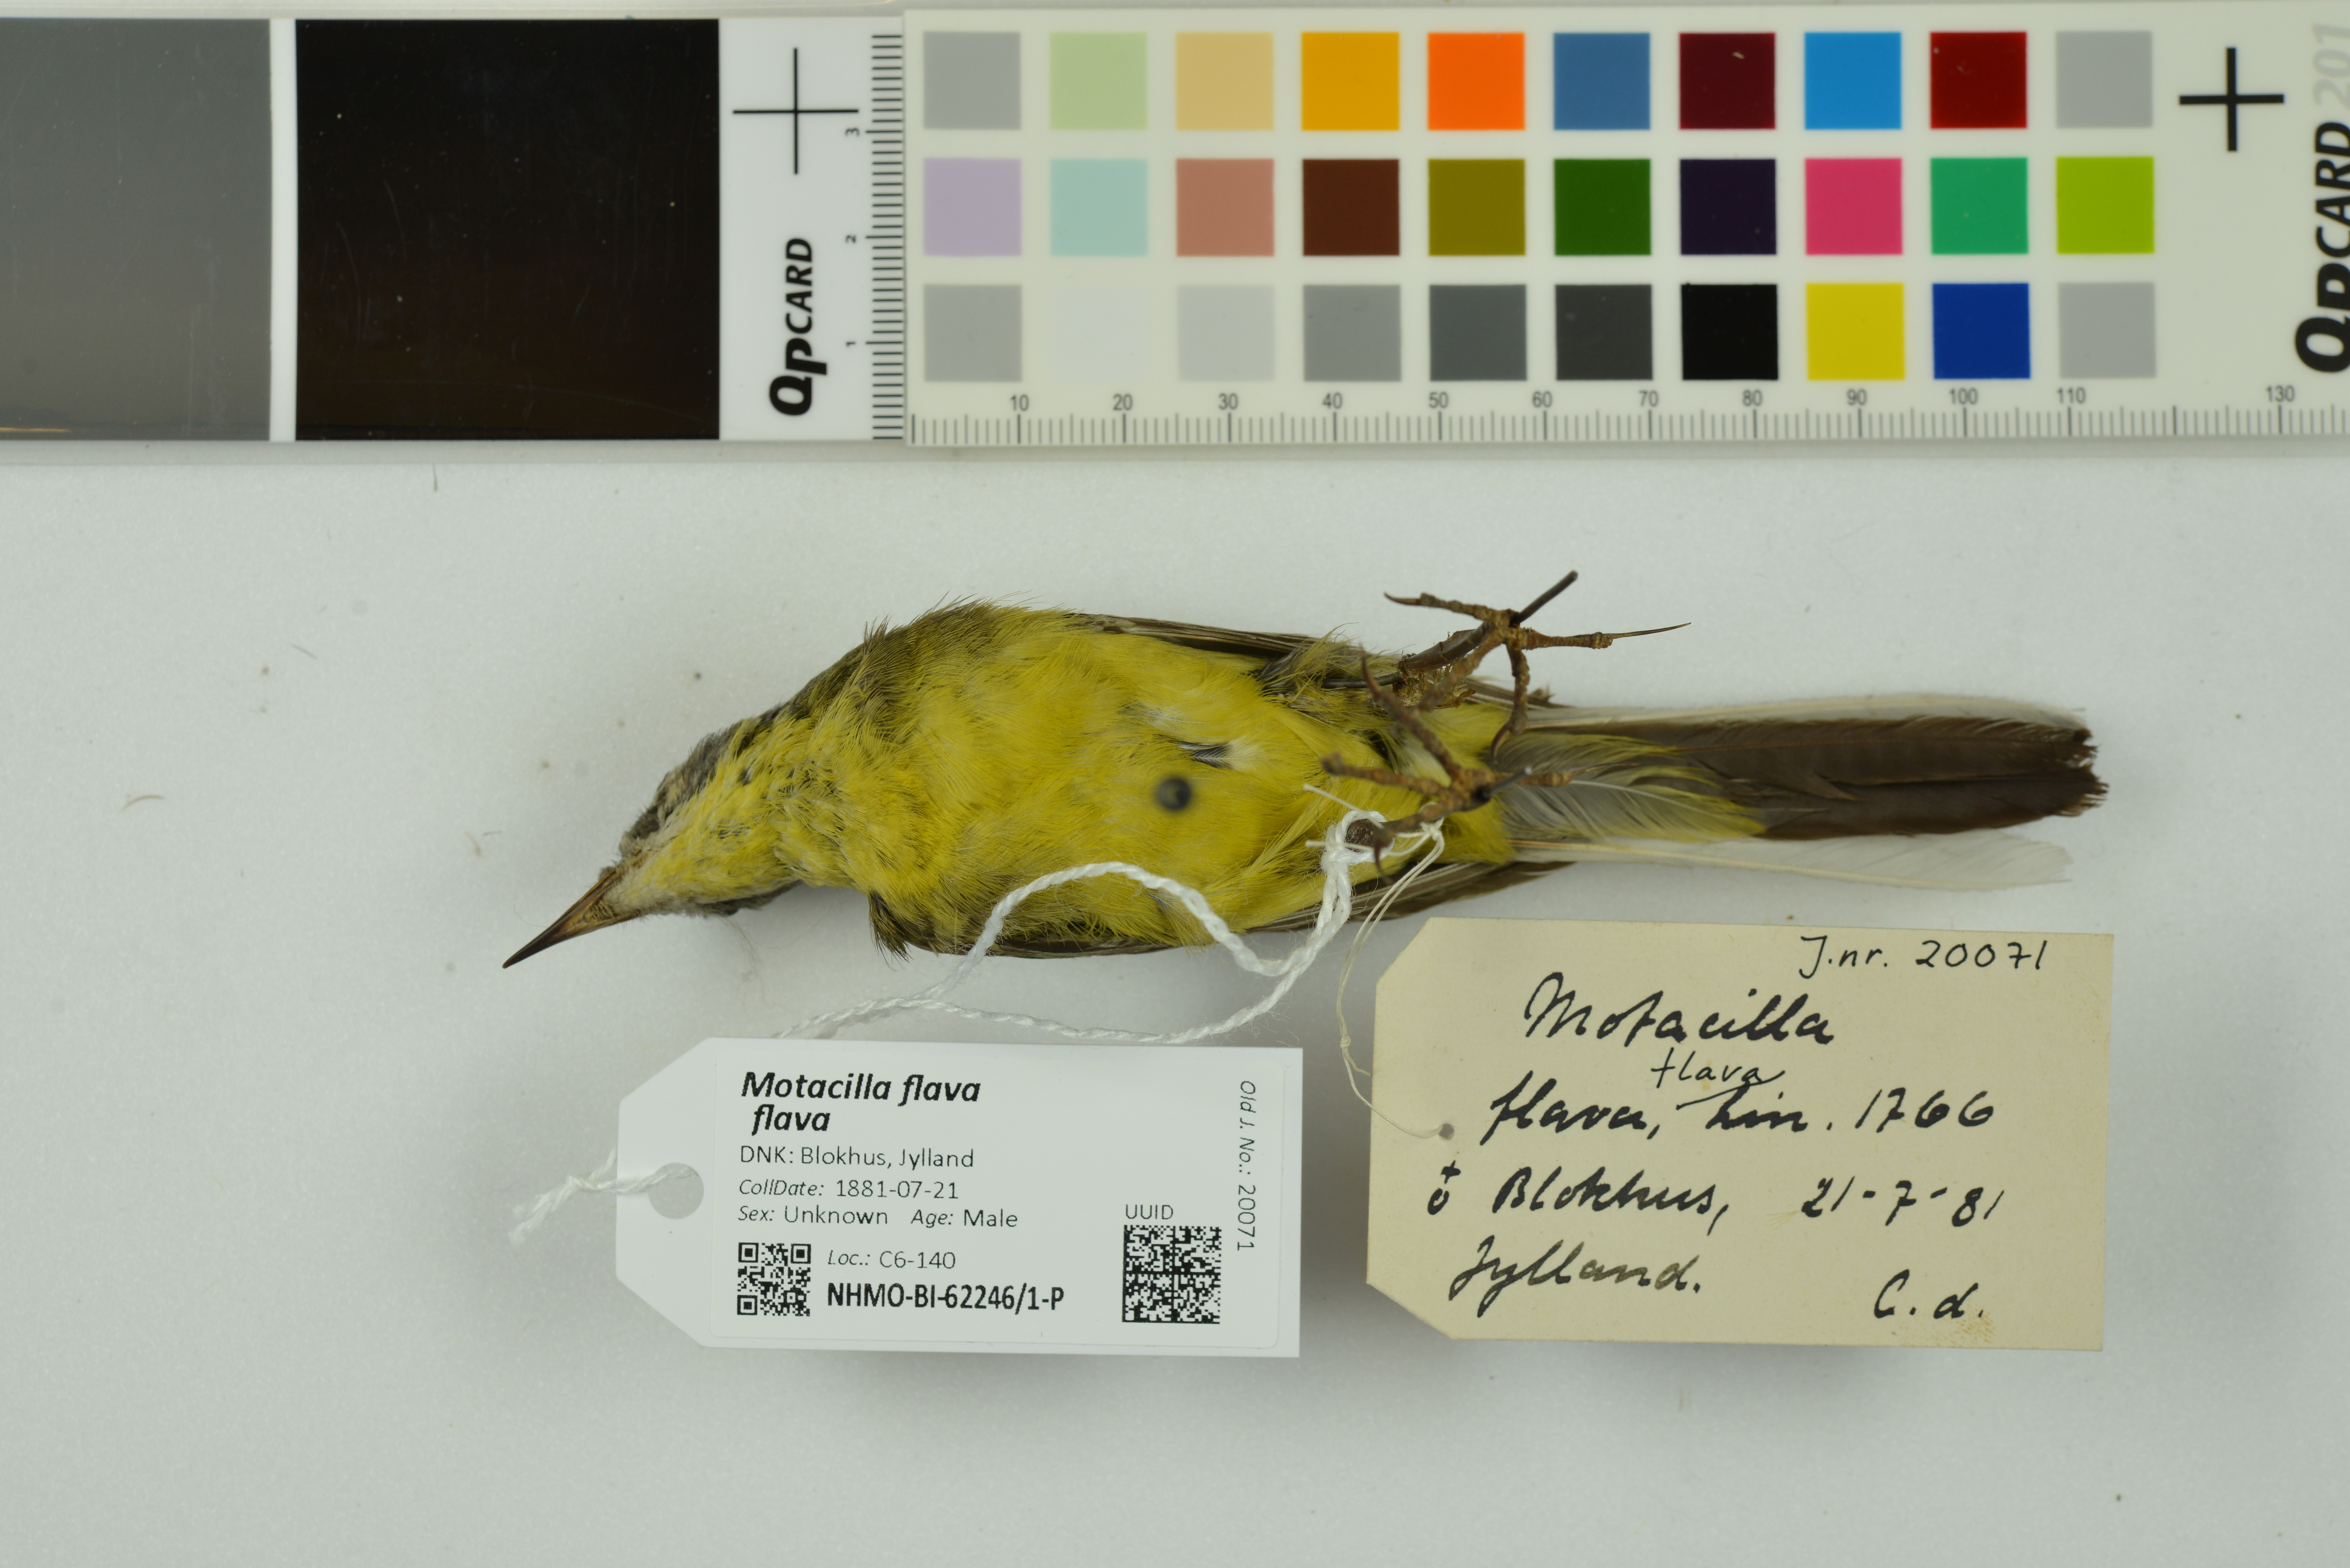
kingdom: Animalia
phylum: Chordata
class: Aves
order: Passeriformes
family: Motacillidae
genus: Motacilla
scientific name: Motacilla flava
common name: Western yellow wagtail
